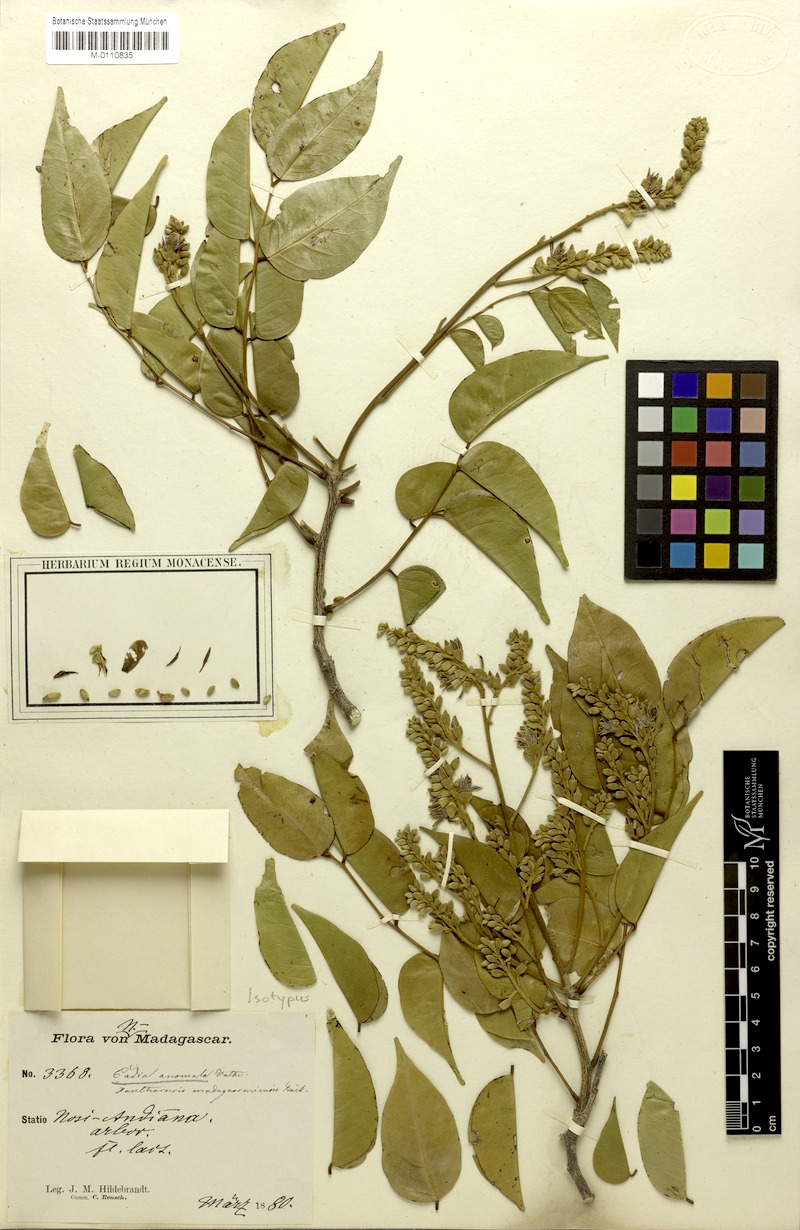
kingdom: Plantae
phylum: Tracheophyta
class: Magnoliopsida
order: Fabales
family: Fabaceae
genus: Xanthocercis
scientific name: Xanthocercis madagascariensis
